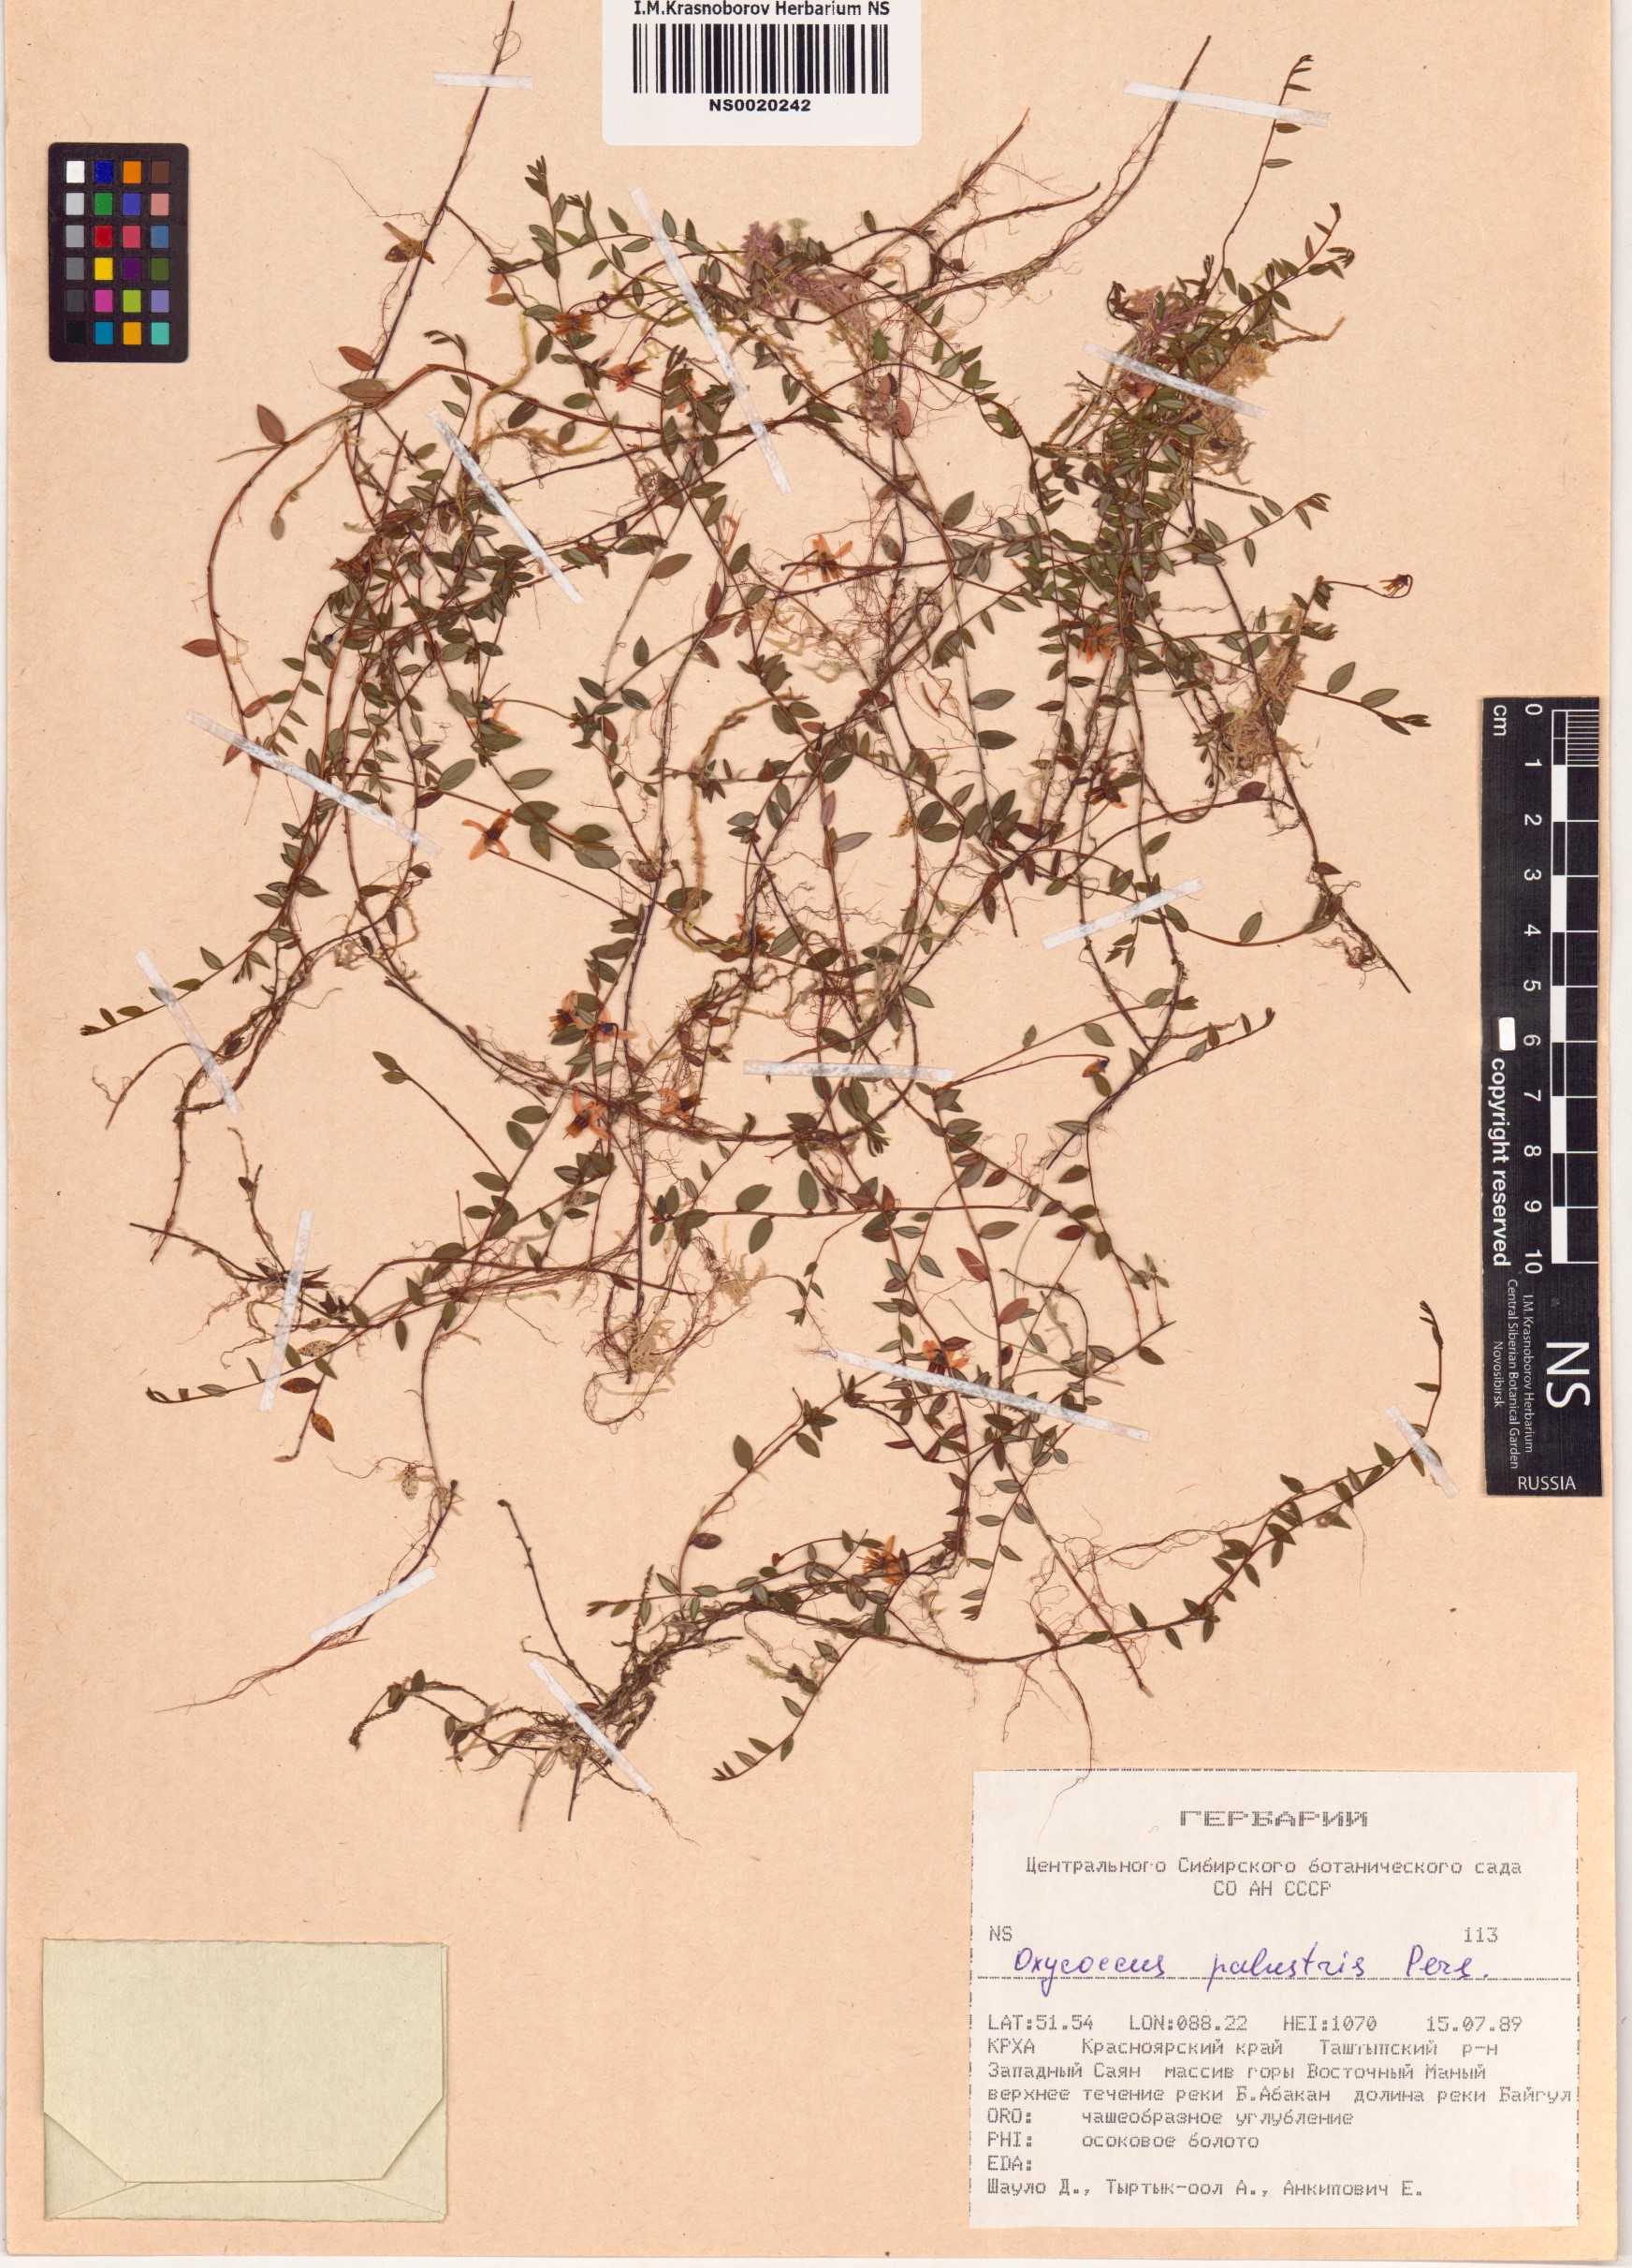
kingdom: Plantae
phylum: Tracheophyta
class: Magnoliopsida
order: Ericales
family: Ericaceae
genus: Vaccinium
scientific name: Vaccinium oxycoccos
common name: Cranberry
